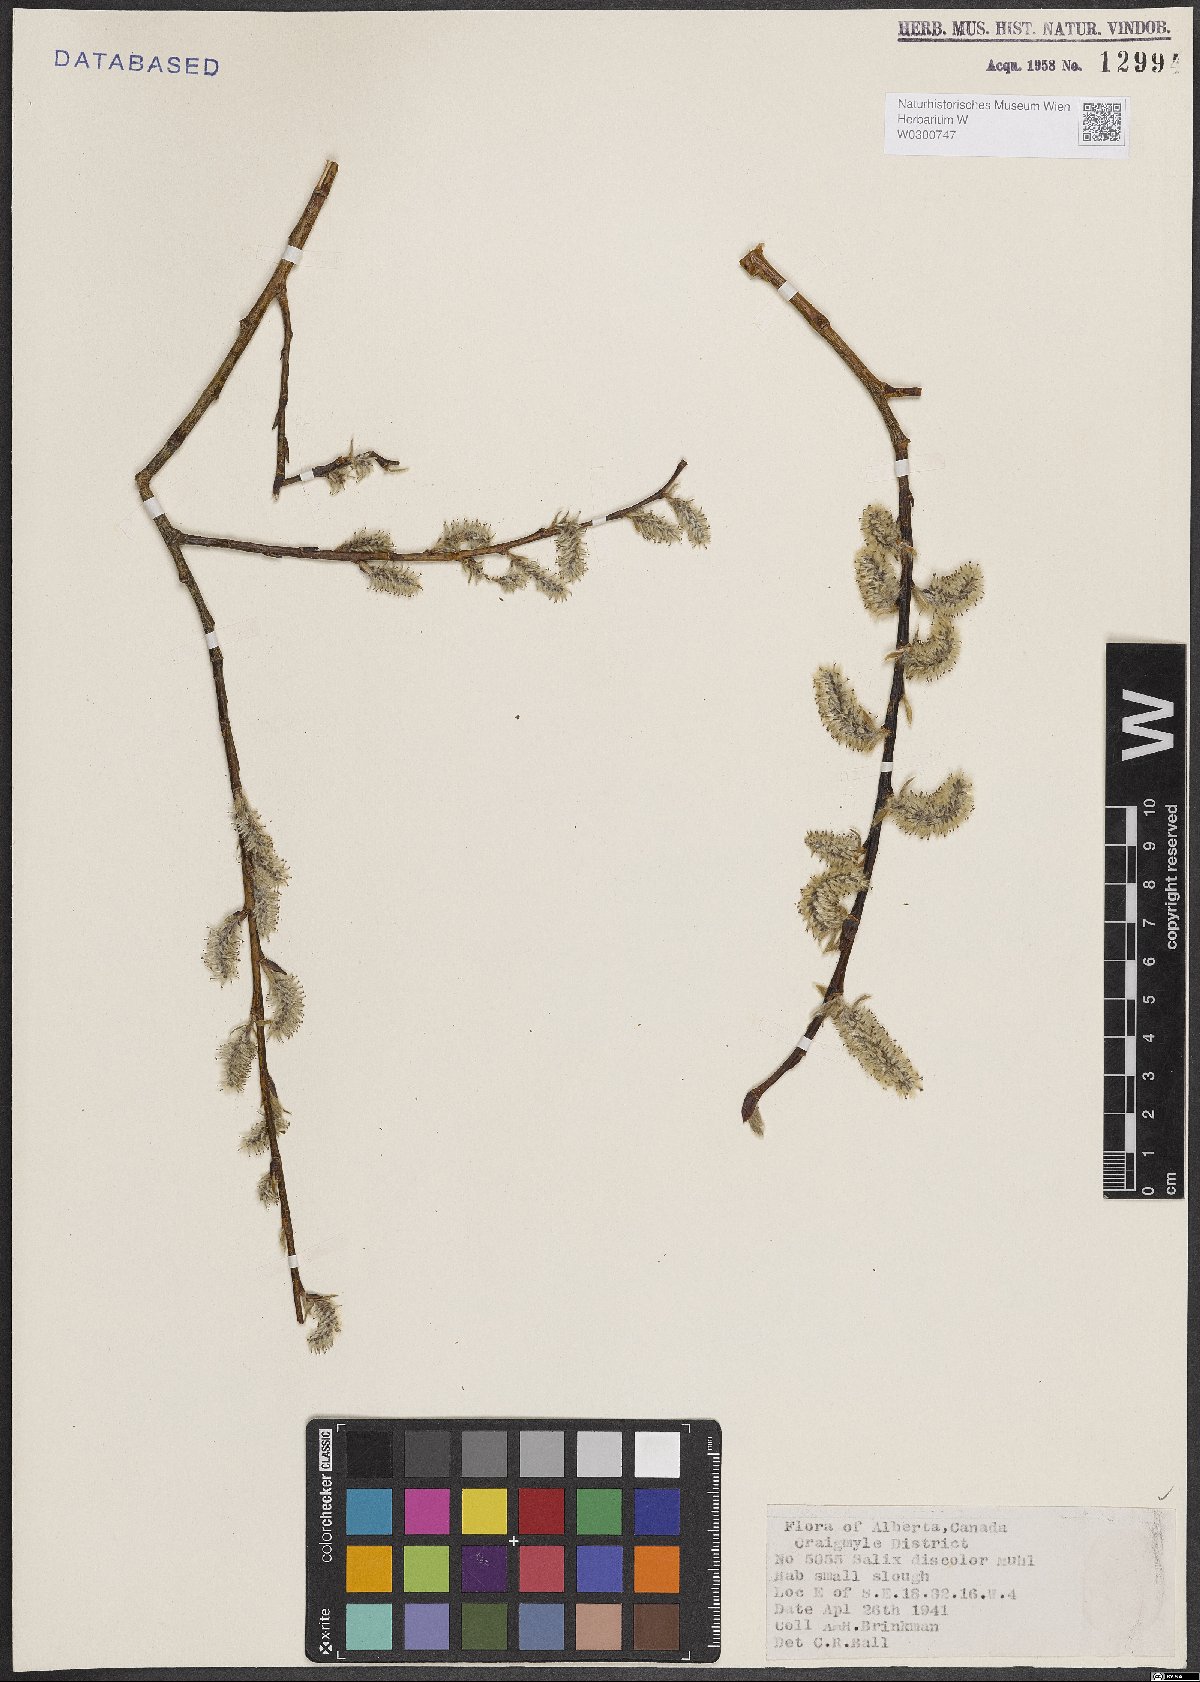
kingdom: Plantae
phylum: Tracheophyta
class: Magnoliopsida
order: Malpighiales
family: Salicaceae
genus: Salix
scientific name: Salix discolor
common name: Glaucous willow
